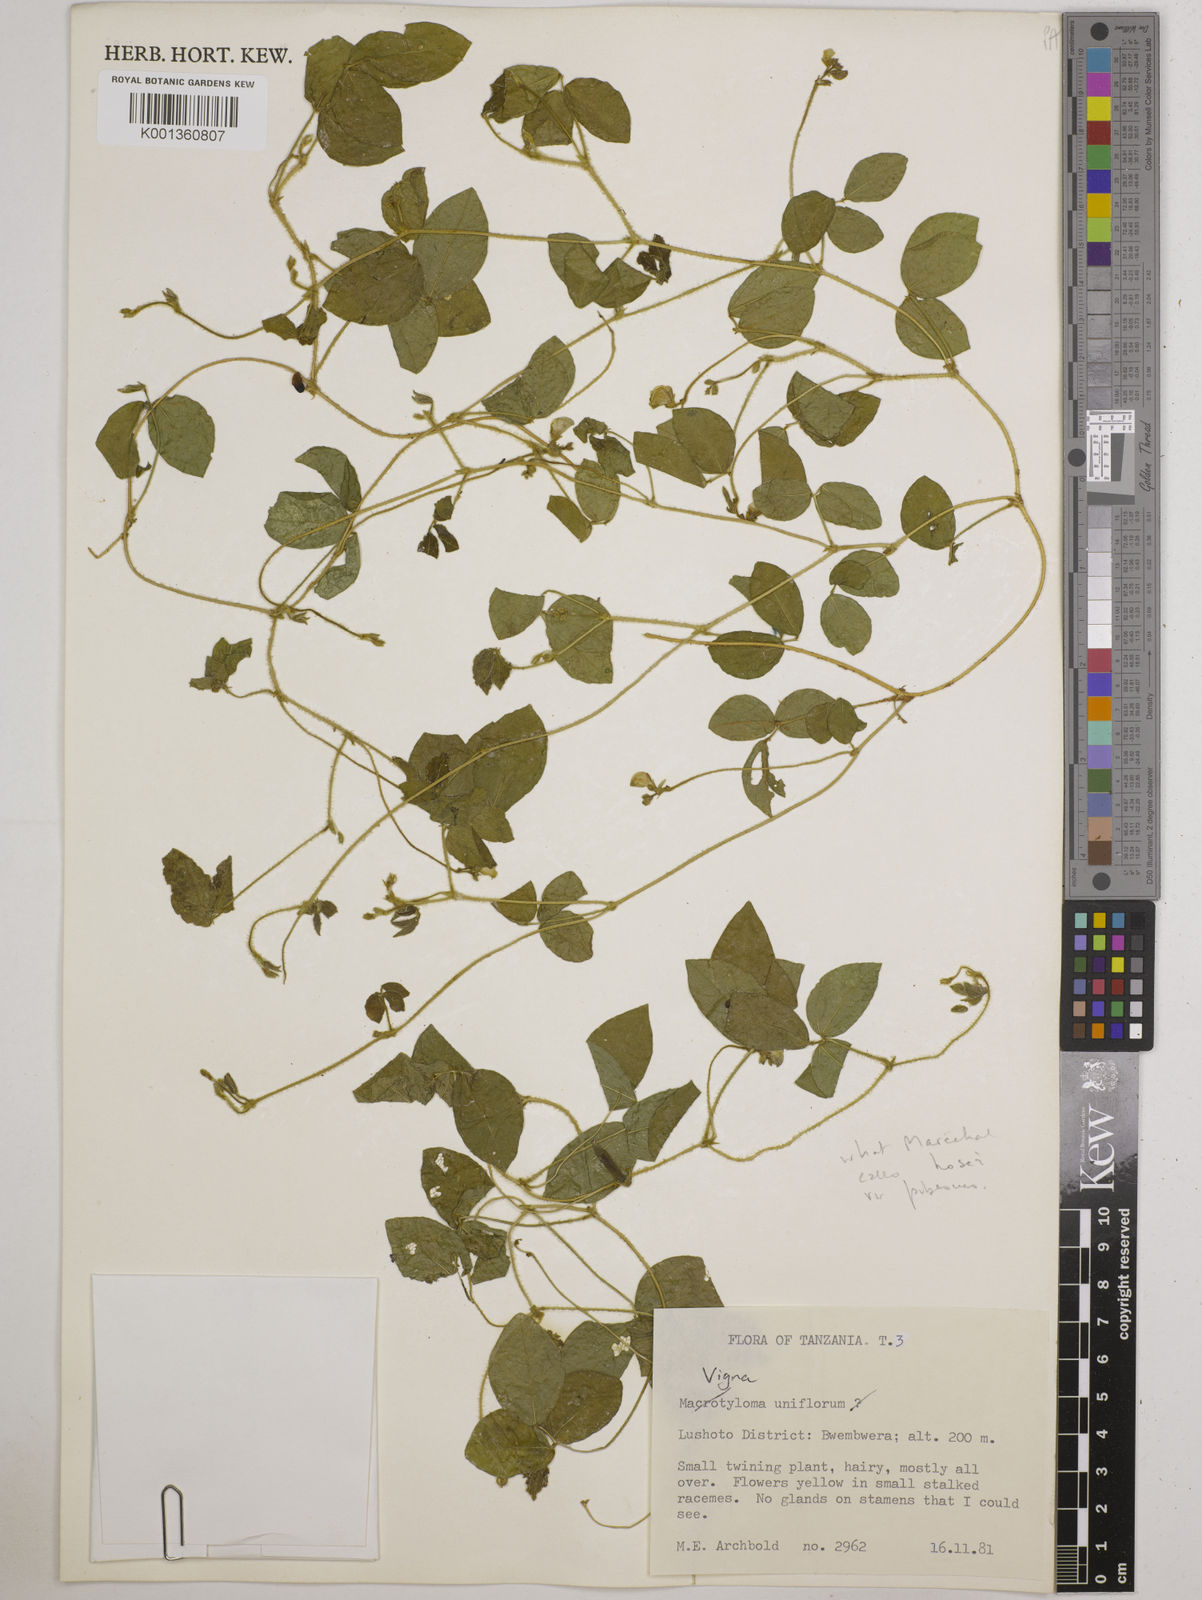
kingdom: Plantae
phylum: Tracheophyta
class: Magnoliopsida
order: Fabales
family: Fabaceae
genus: Vigna
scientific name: Vigna
